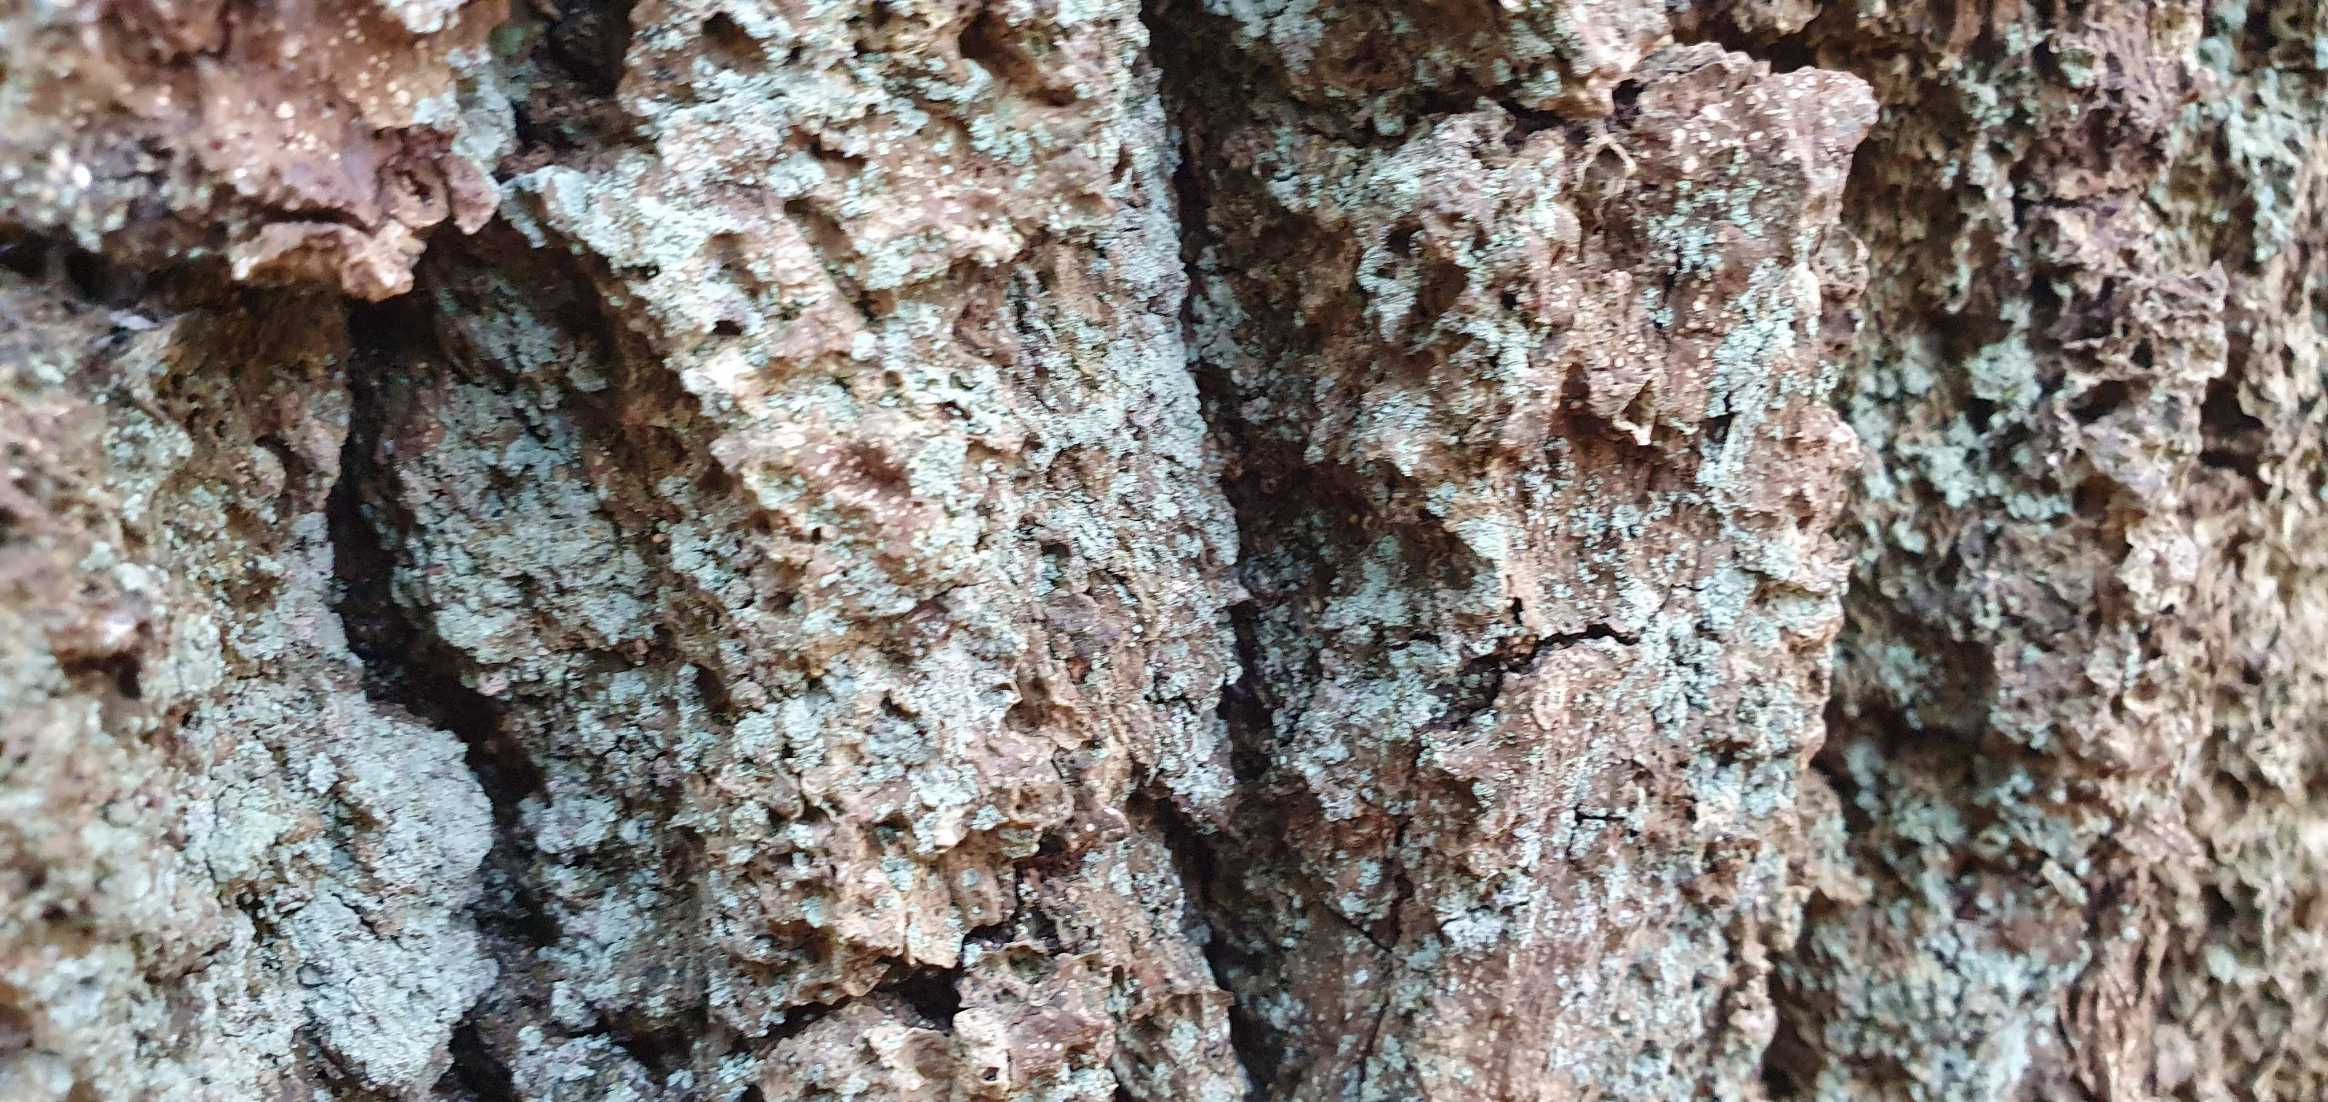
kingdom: Fungi
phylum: Ascomycota
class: Lecanoromycetes
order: Lecanorales
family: Stereocaulaceae
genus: Lepraria
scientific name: Lepraria
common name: Støvlav
